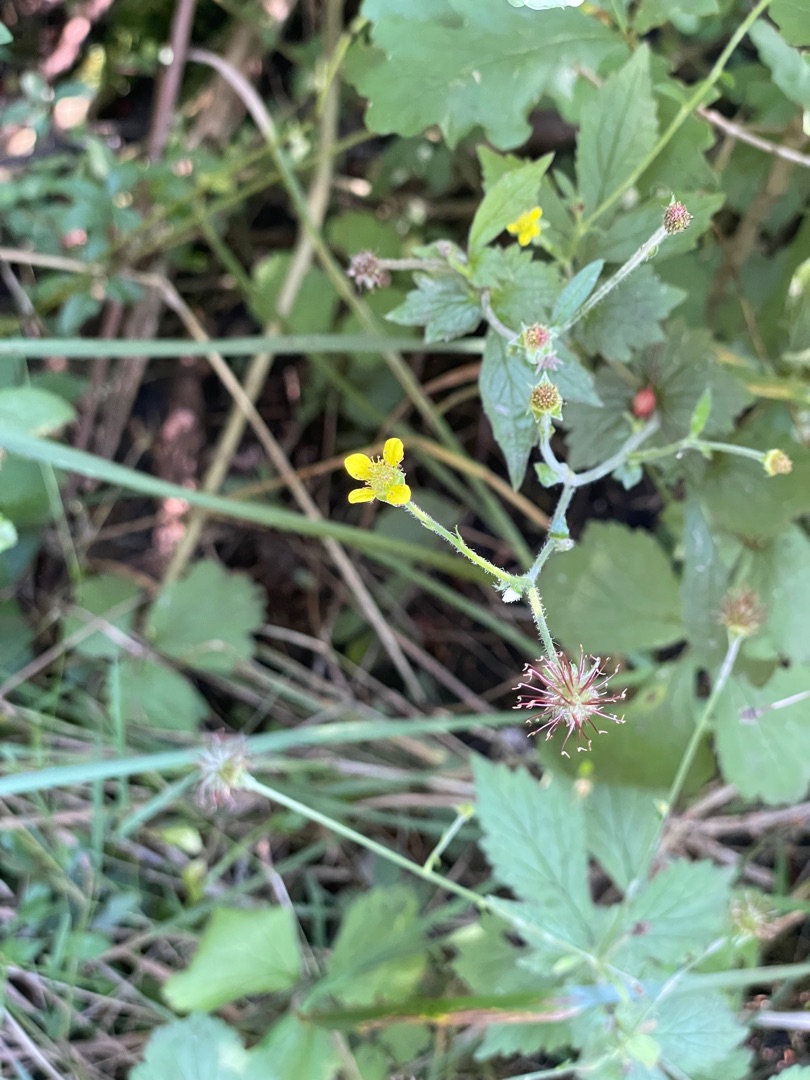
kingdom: Plantae
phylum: Tracheophyta
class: Magnoliopsida
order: Rosales
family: Rosaceae
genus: Geum
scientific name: Geum urbanum
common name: Feber-nellikerod
